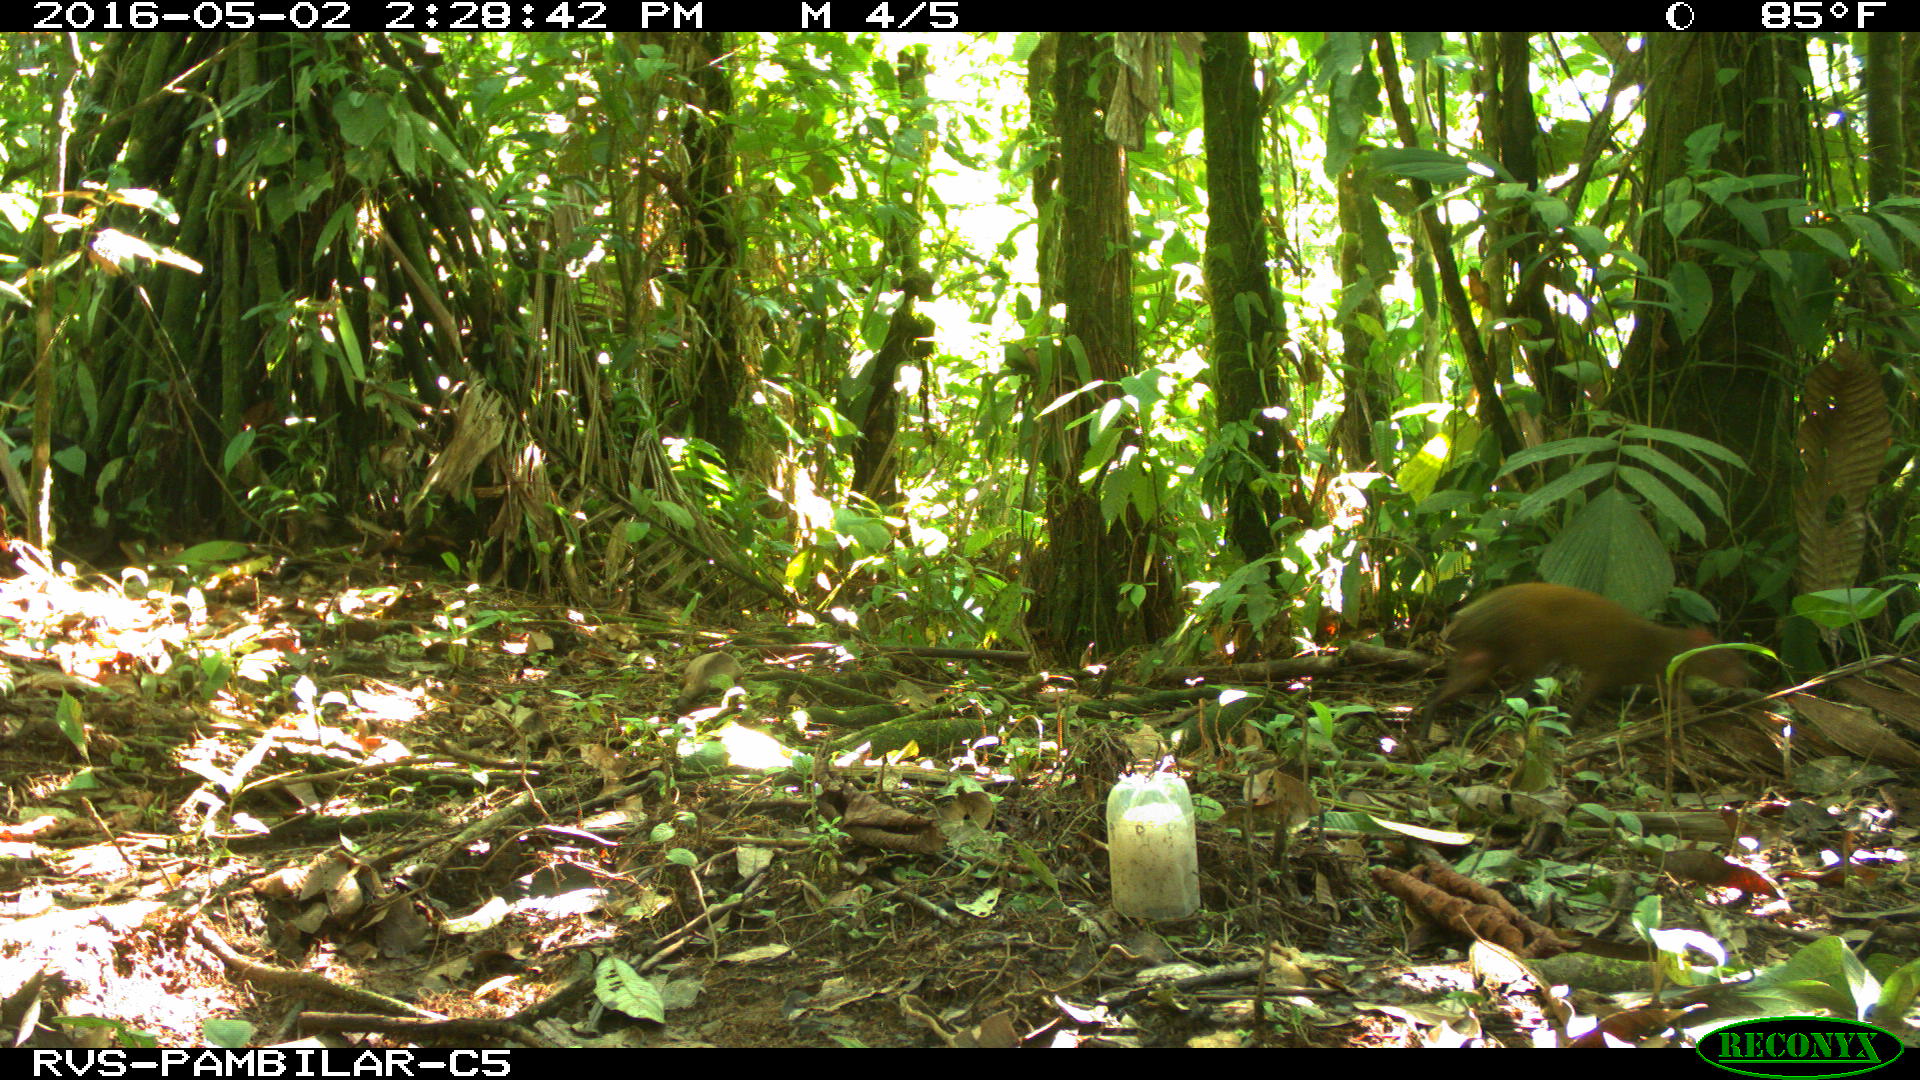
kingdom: Animalia
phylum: Chordata
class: Mammalia
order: Rodentia
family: Dasyproctidae
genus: Dasyprocta
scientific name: Dasyprocta punctata
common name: Central american agouti
